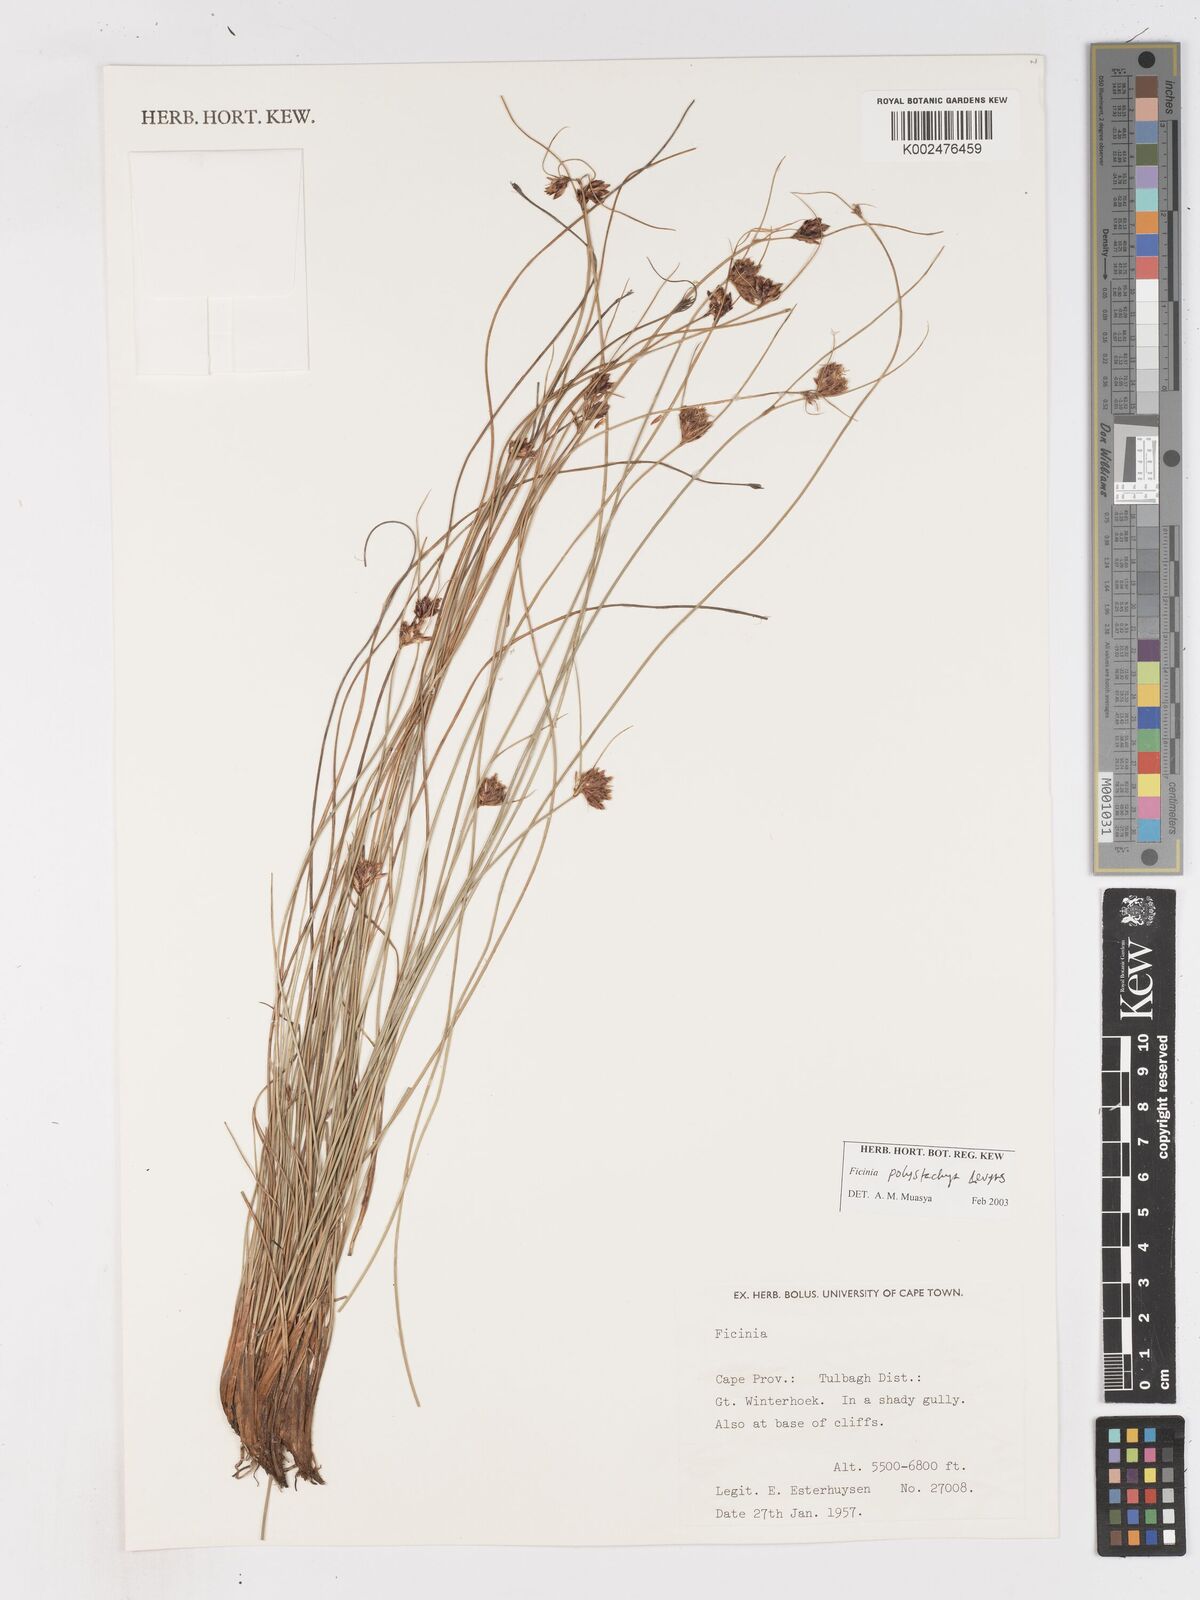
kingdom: Plantae
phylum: Tracheophyta
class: Liliopsida
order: Poales
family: Cyperaceae
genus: Ficinia
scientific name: Ficinia polystachya
